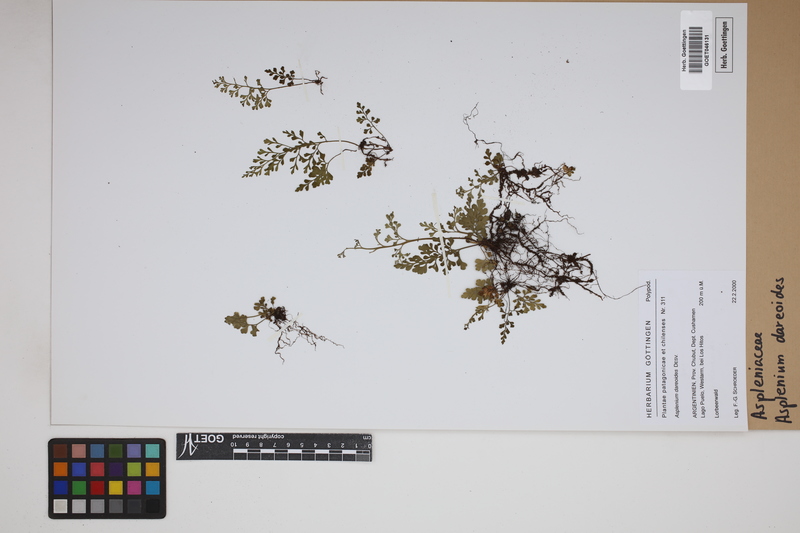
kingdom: Plantae
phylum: Tracheophyta
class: Polypodiopsida
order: Polypodiales
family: Aspleniaceae
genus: Asplenium
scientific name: Asplenium dareoides
